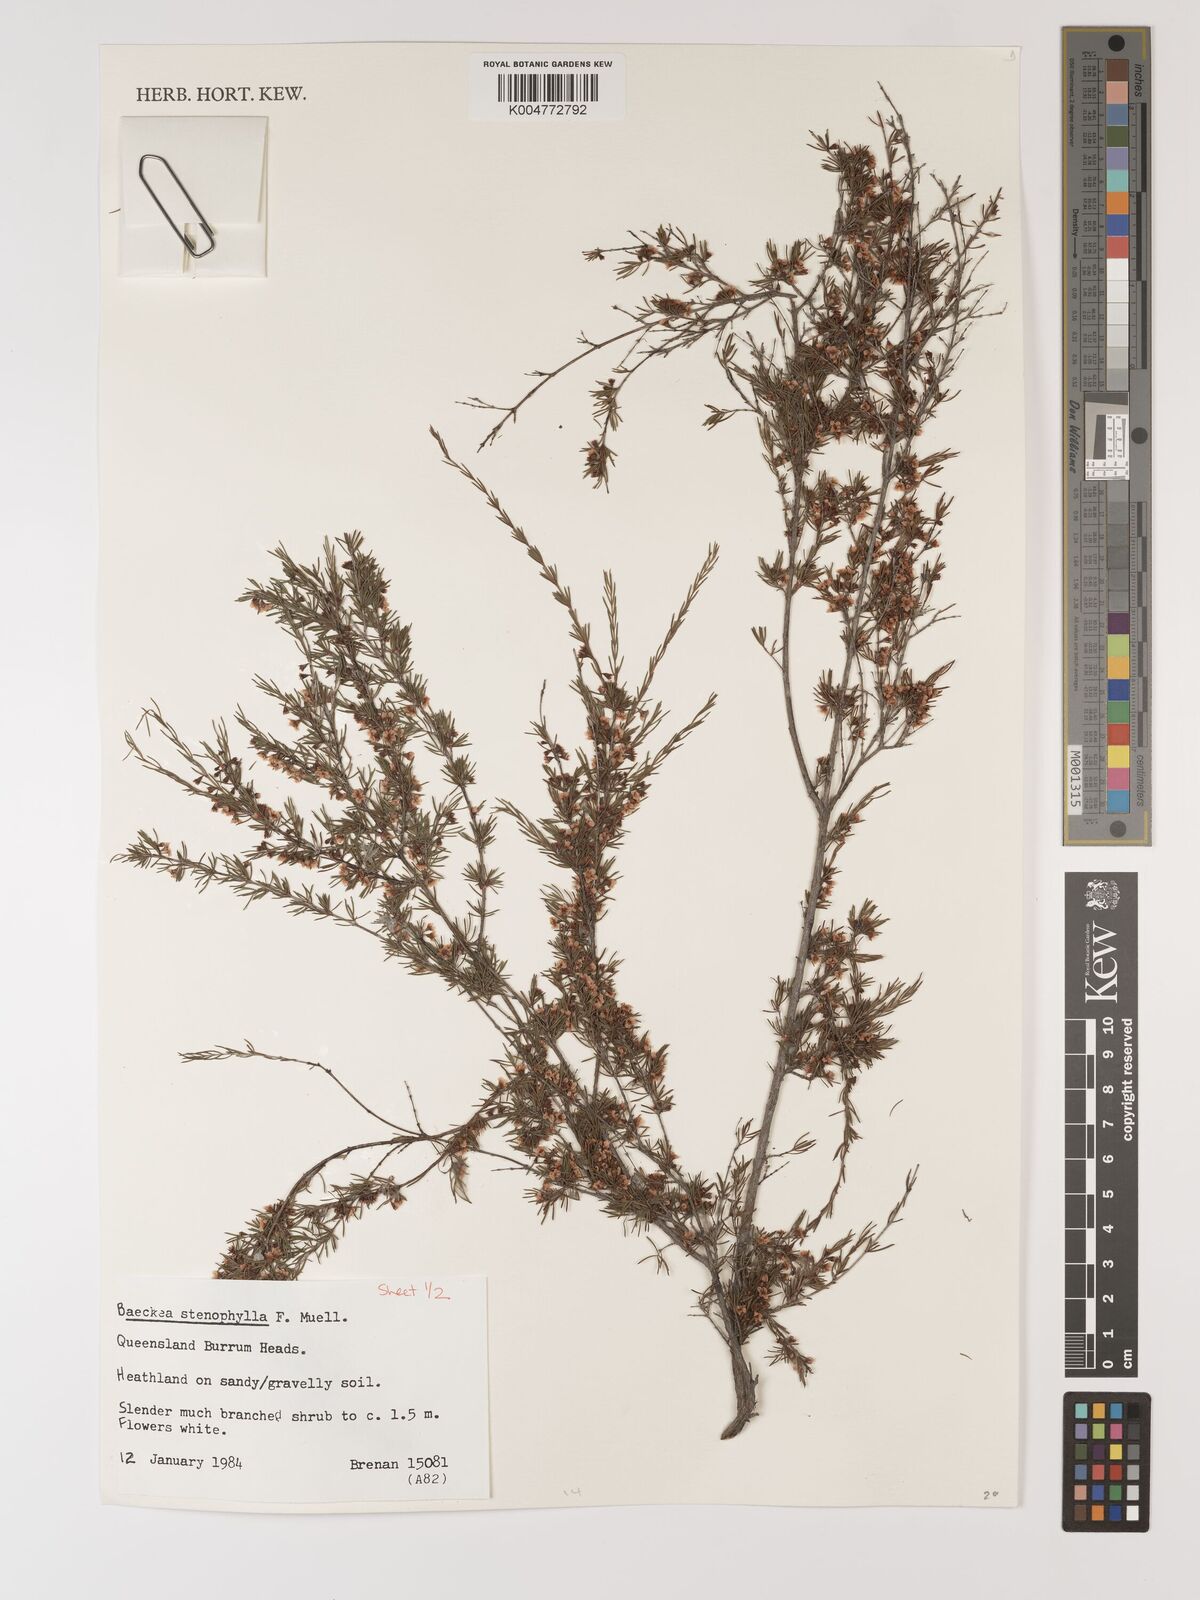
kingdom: Plantae
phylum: Tracheophyta
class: Magnoliopsida
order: Myrtales
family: Myrtaceae
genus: Baeckea
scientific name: Baeckea frutescens
